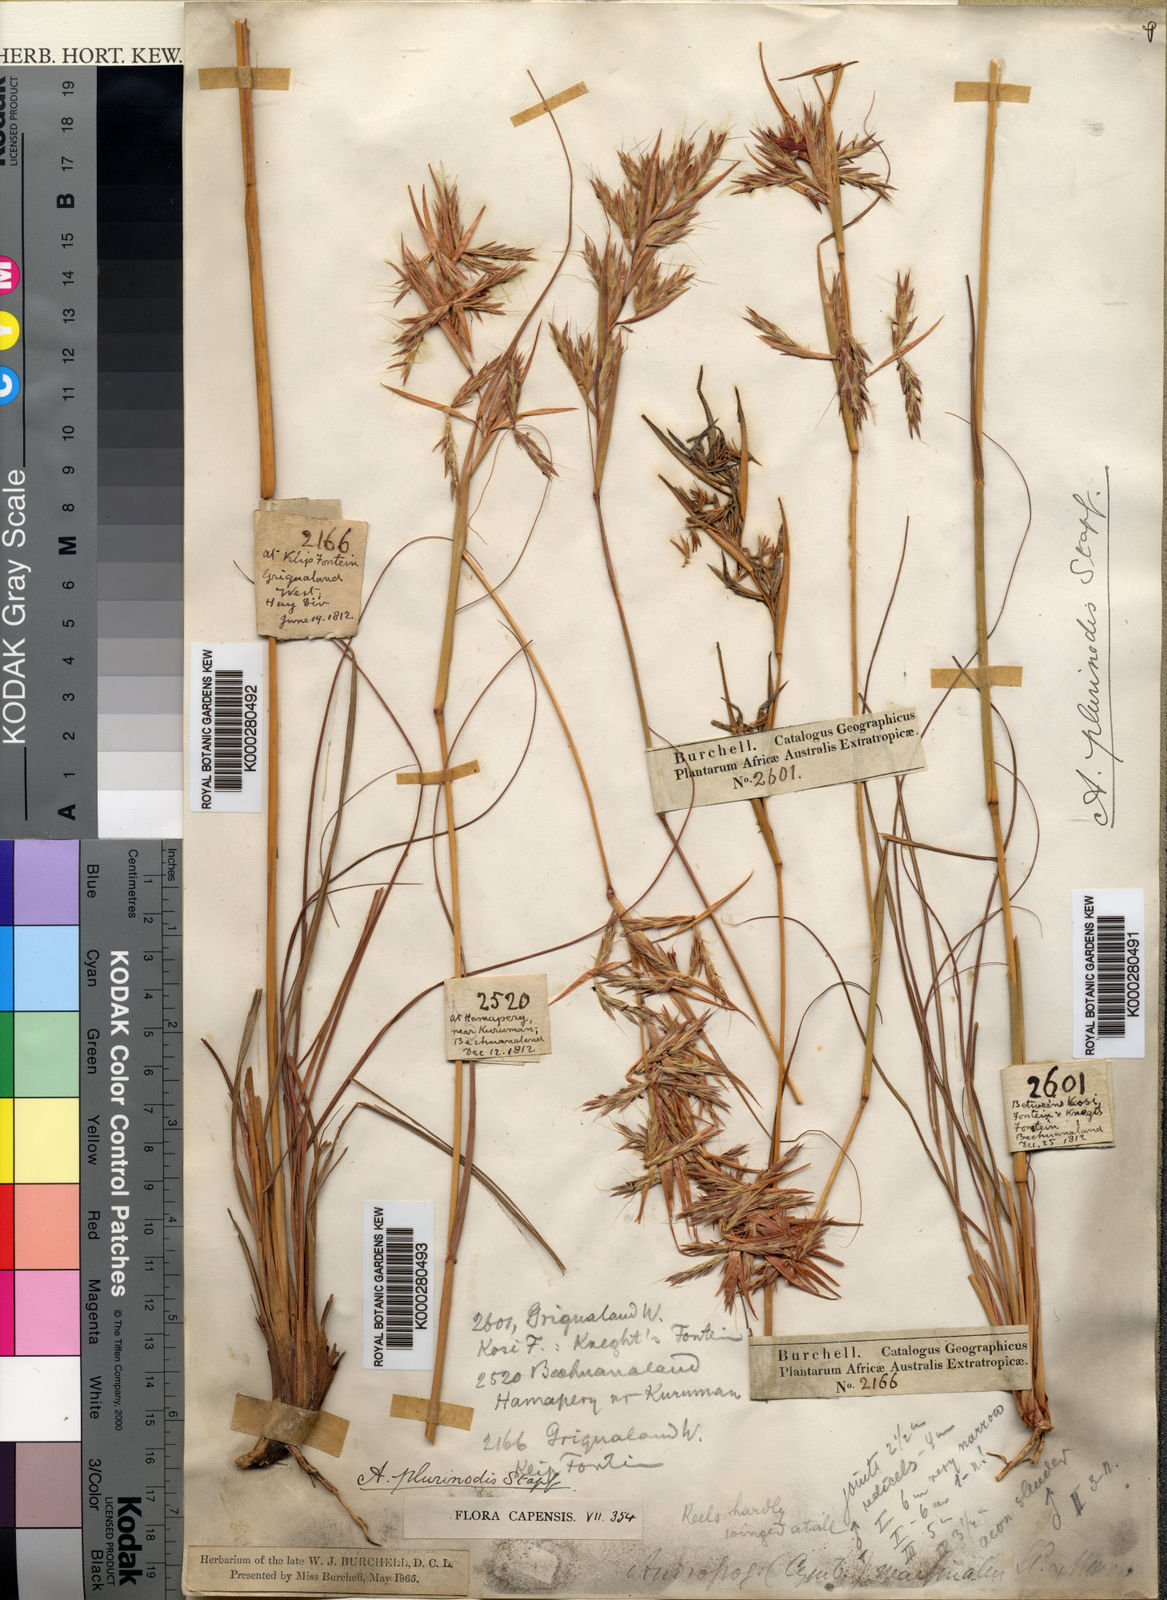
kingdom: Plantae
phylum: Tracheophyta
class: Liliopsida
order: Poales
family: Poaceae
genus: Cymbopogon
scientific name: Cymbopogon pospischilii
